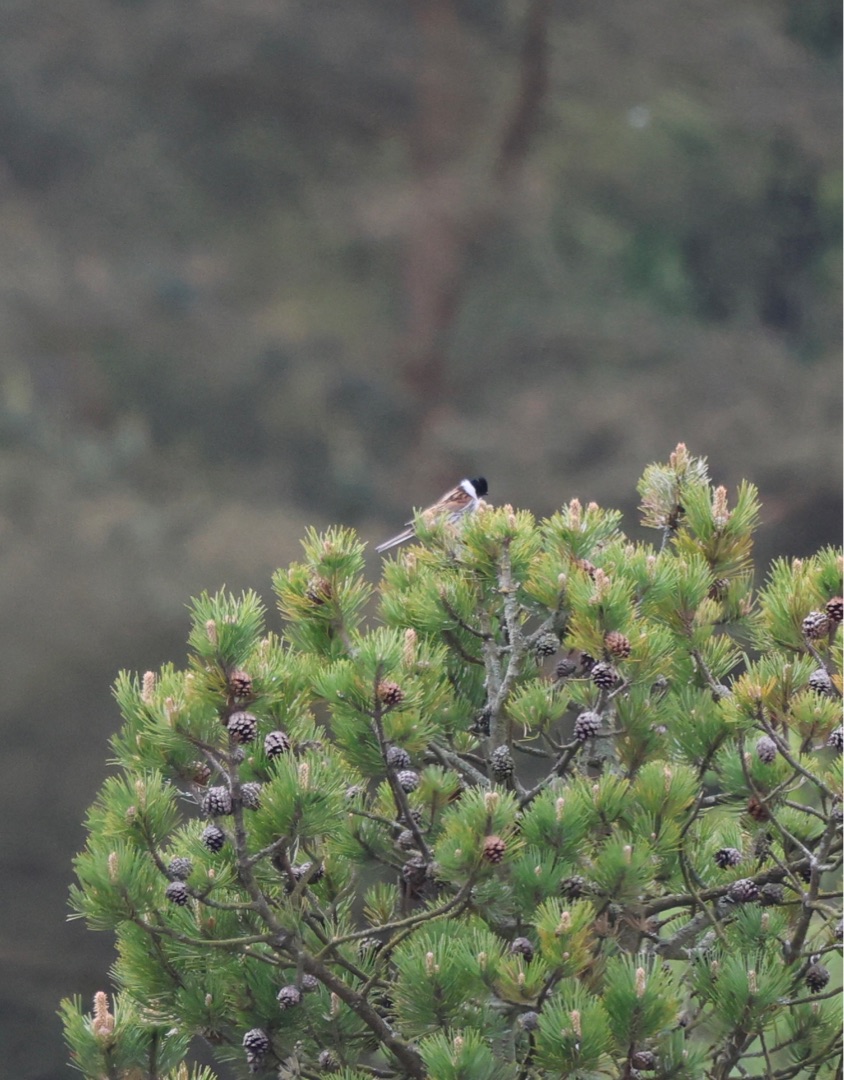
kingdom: Animalia
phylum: Chordata
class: Aves
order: Passeriformes
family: Emberizidae
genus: Emberiza
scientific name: Emberiza schoeniclus
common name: Rørspurv
